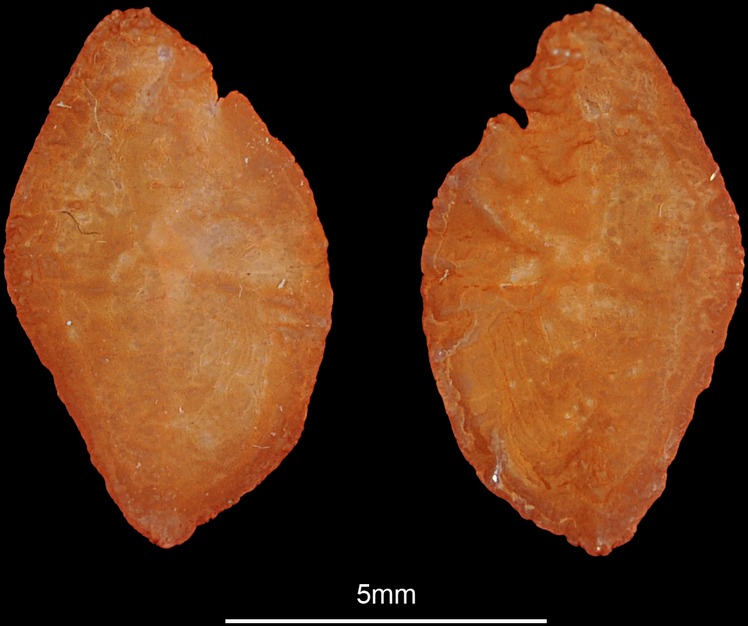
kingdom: Animalia
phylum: Chordata
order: Perciformes
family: Haemulidae
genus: Parapristipoma
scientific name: Parapristipoma octolineatum
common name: African striped grunt
